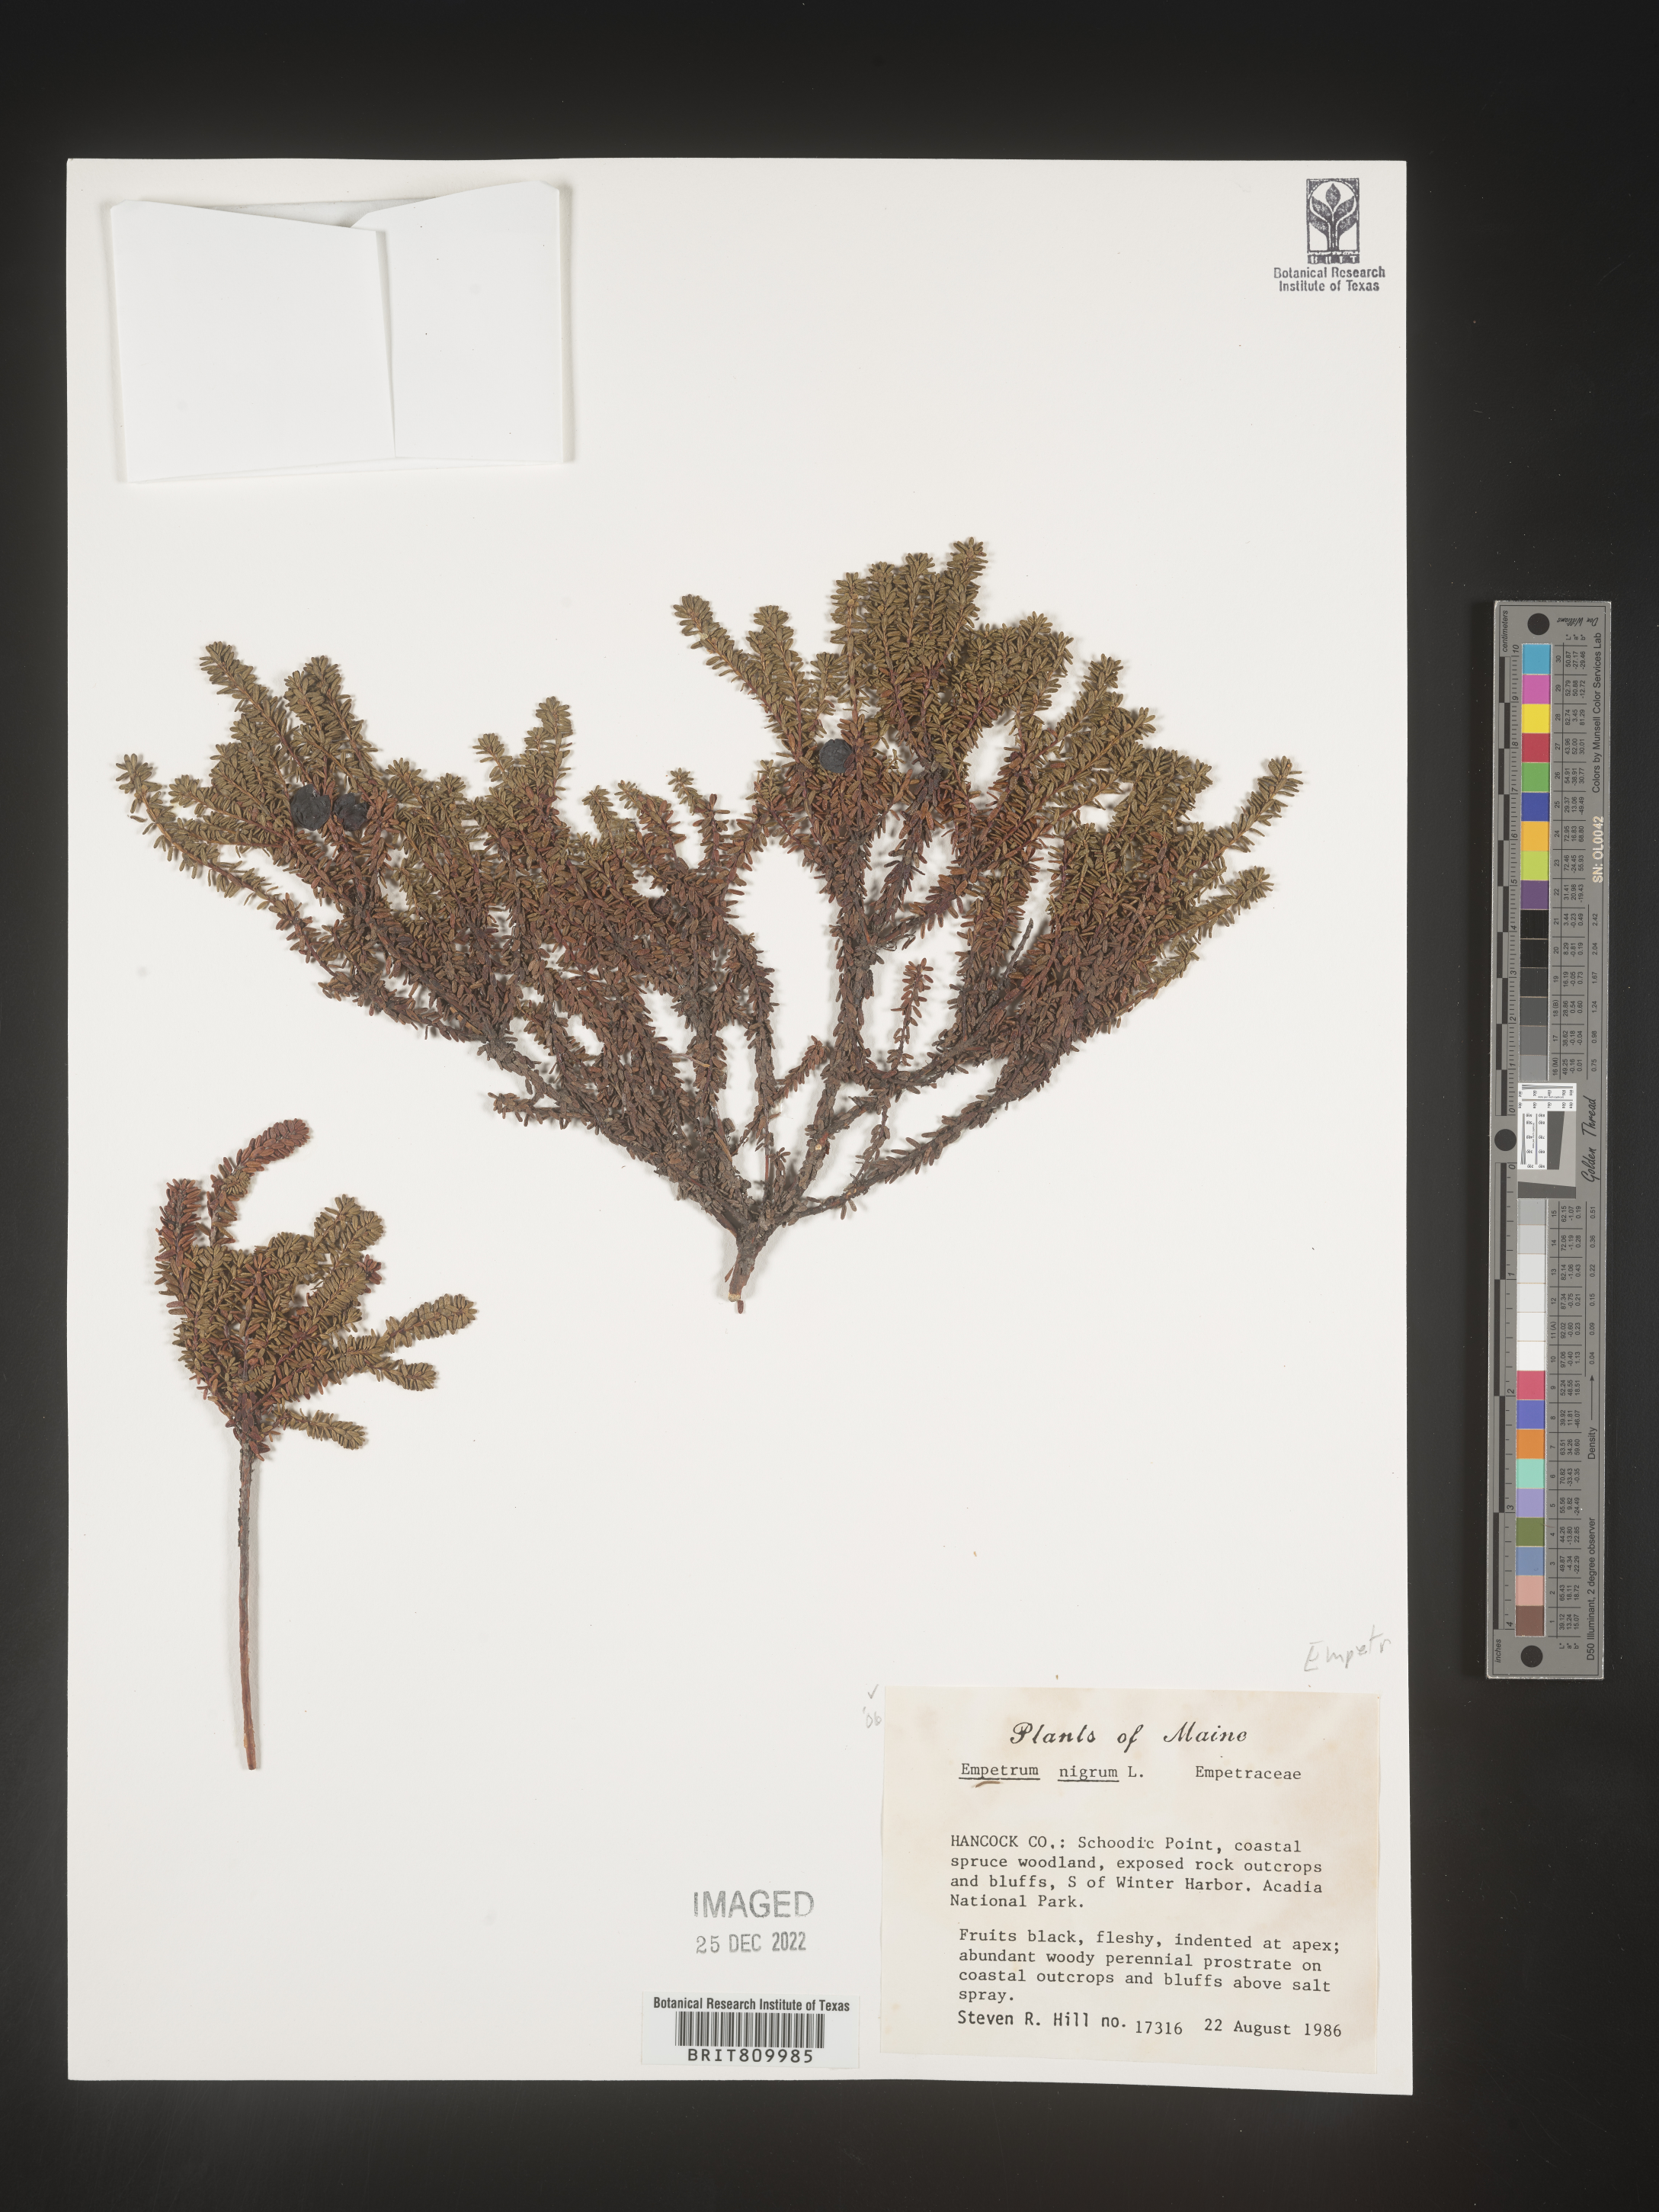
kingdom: Plantae
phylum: Tracheophyta
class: Magnoliopsida
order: Ericales
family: Ericaceae
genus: Empetrum
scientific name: Empetrum
